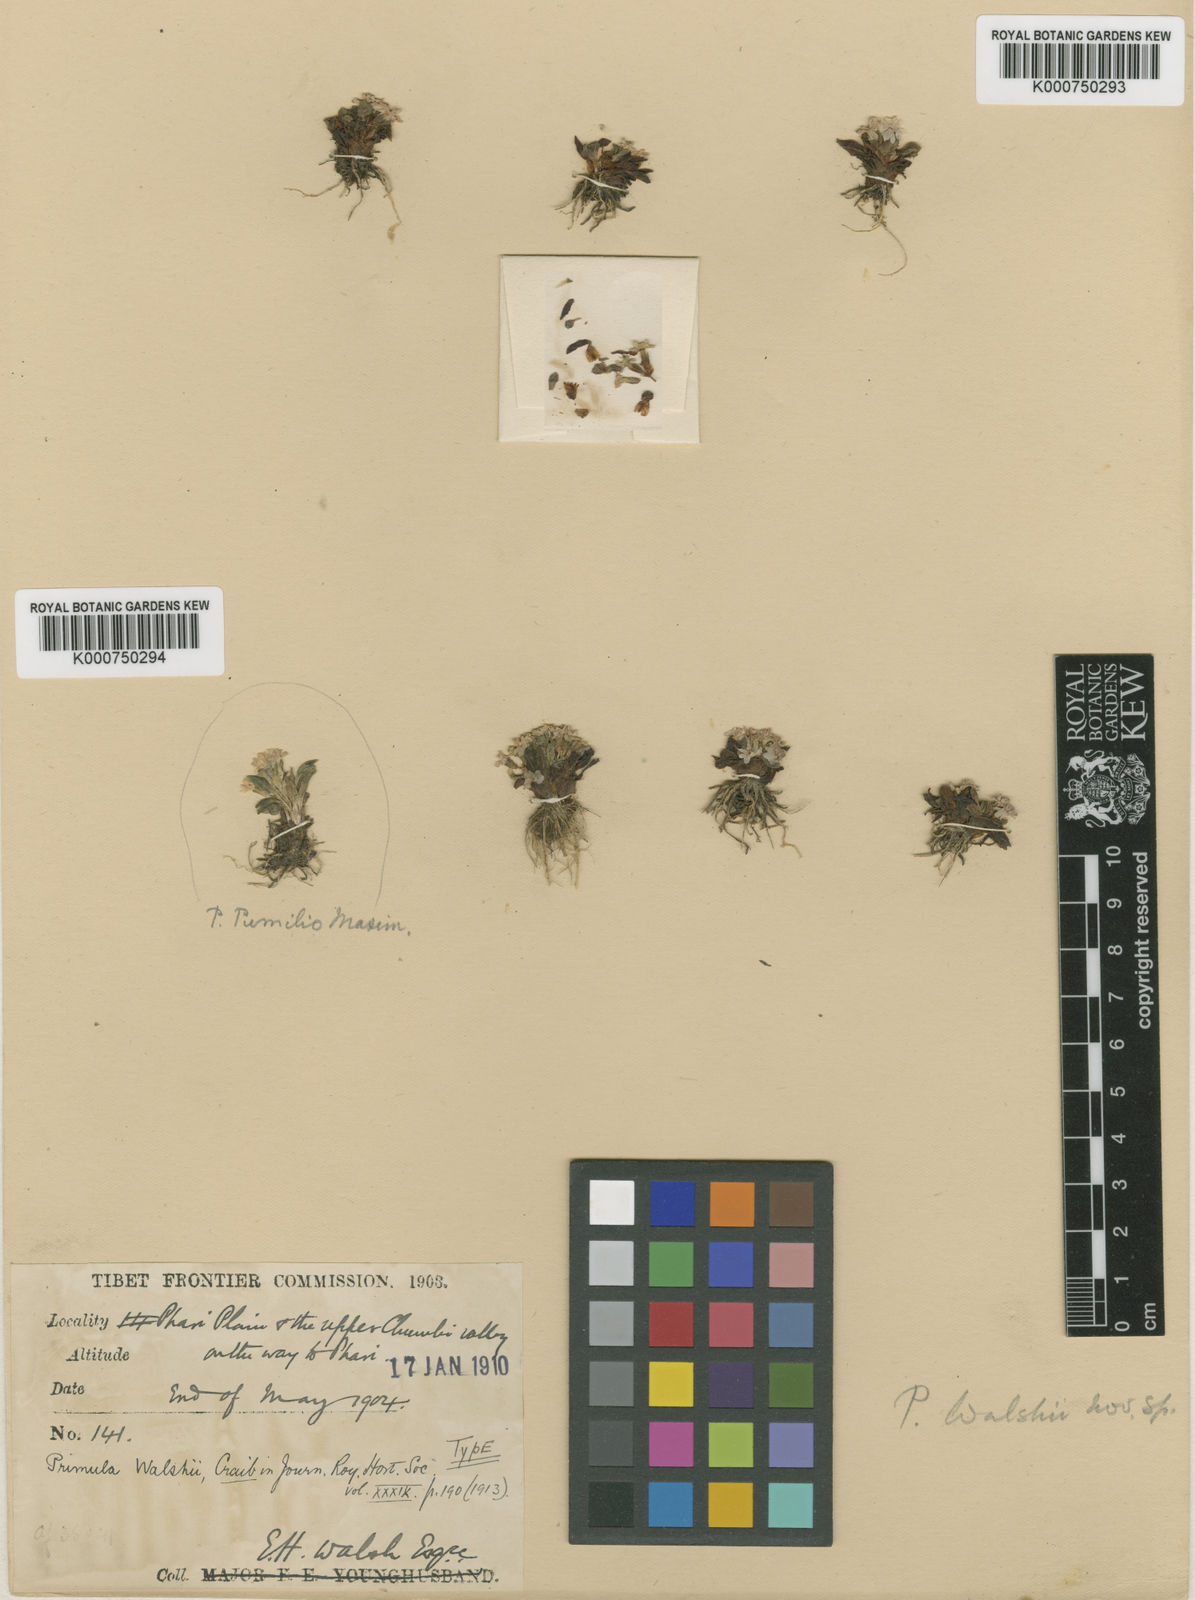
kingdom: Plantae
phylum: Tracheophyta
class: Magnoliopsida
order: Ericales
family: Primulaceae
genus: Primula
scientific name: Primula walshii
